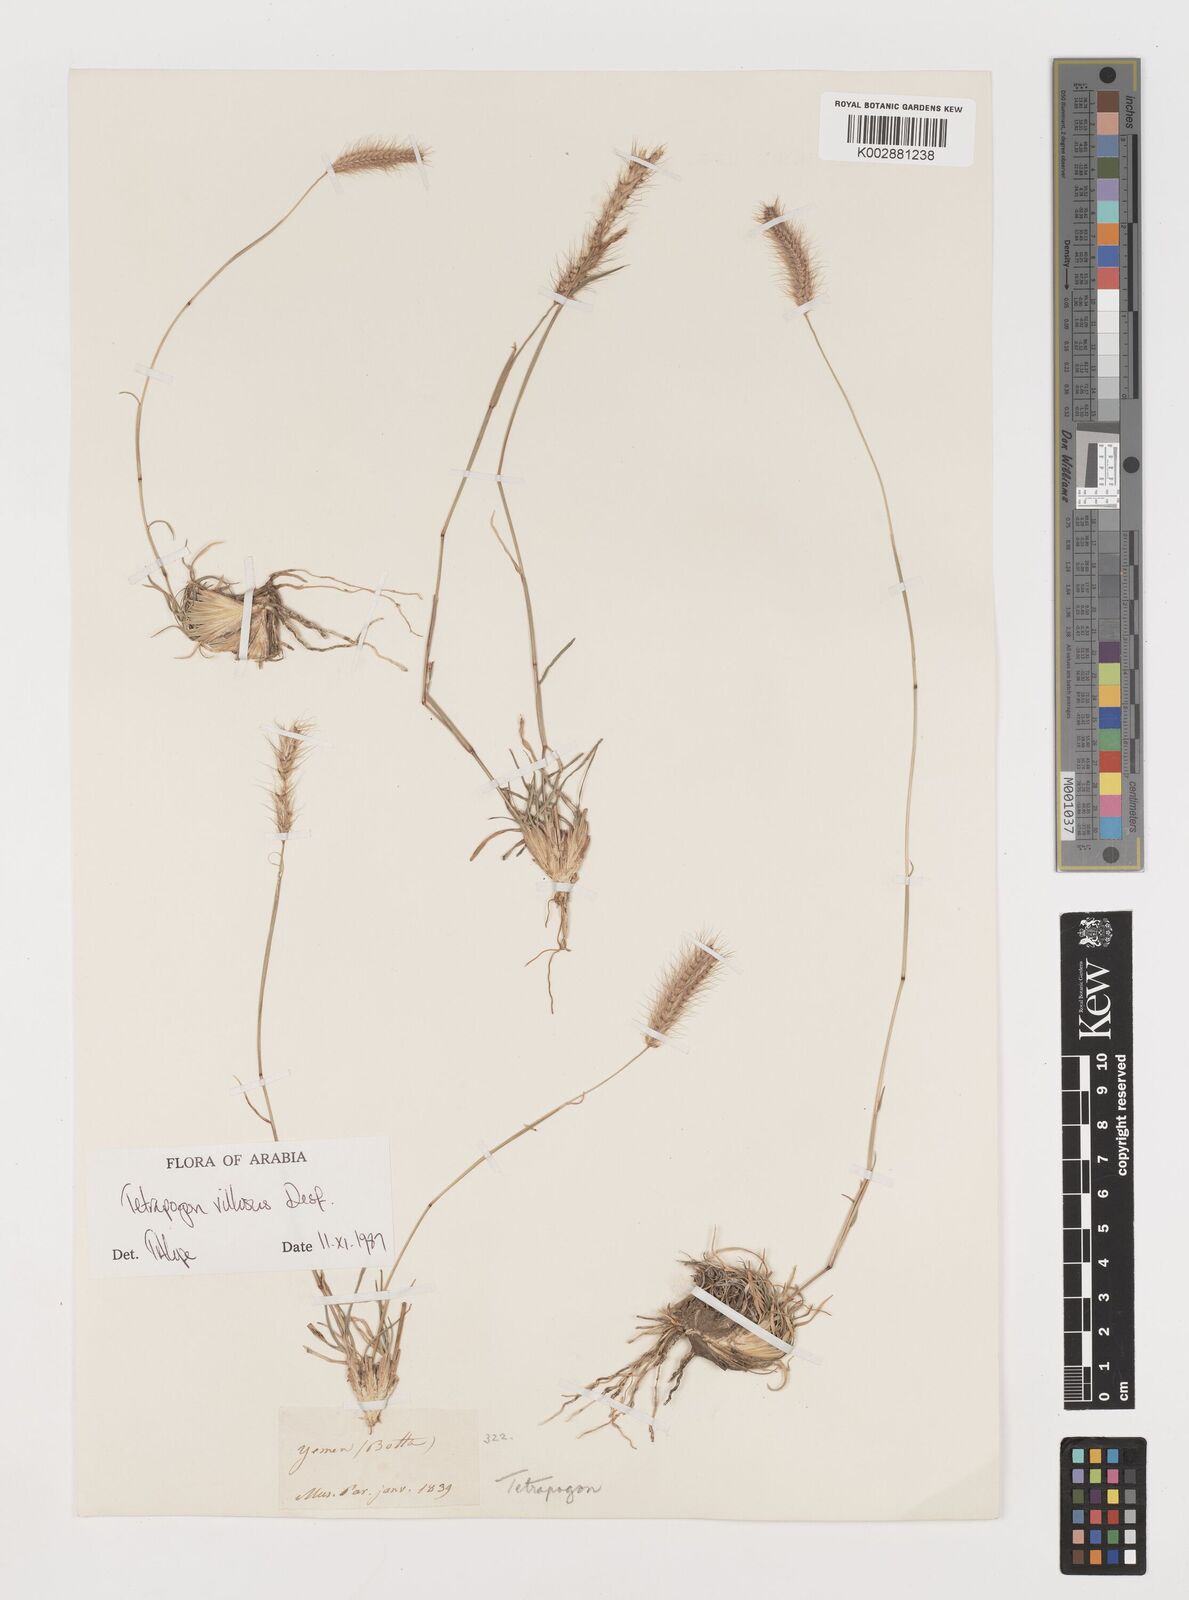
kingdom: Plantae
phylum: Tracheophyta
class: Liliopsida
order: Poales
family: Poaceae
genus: Tetrapogon
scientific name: Tetrapogon villosus
